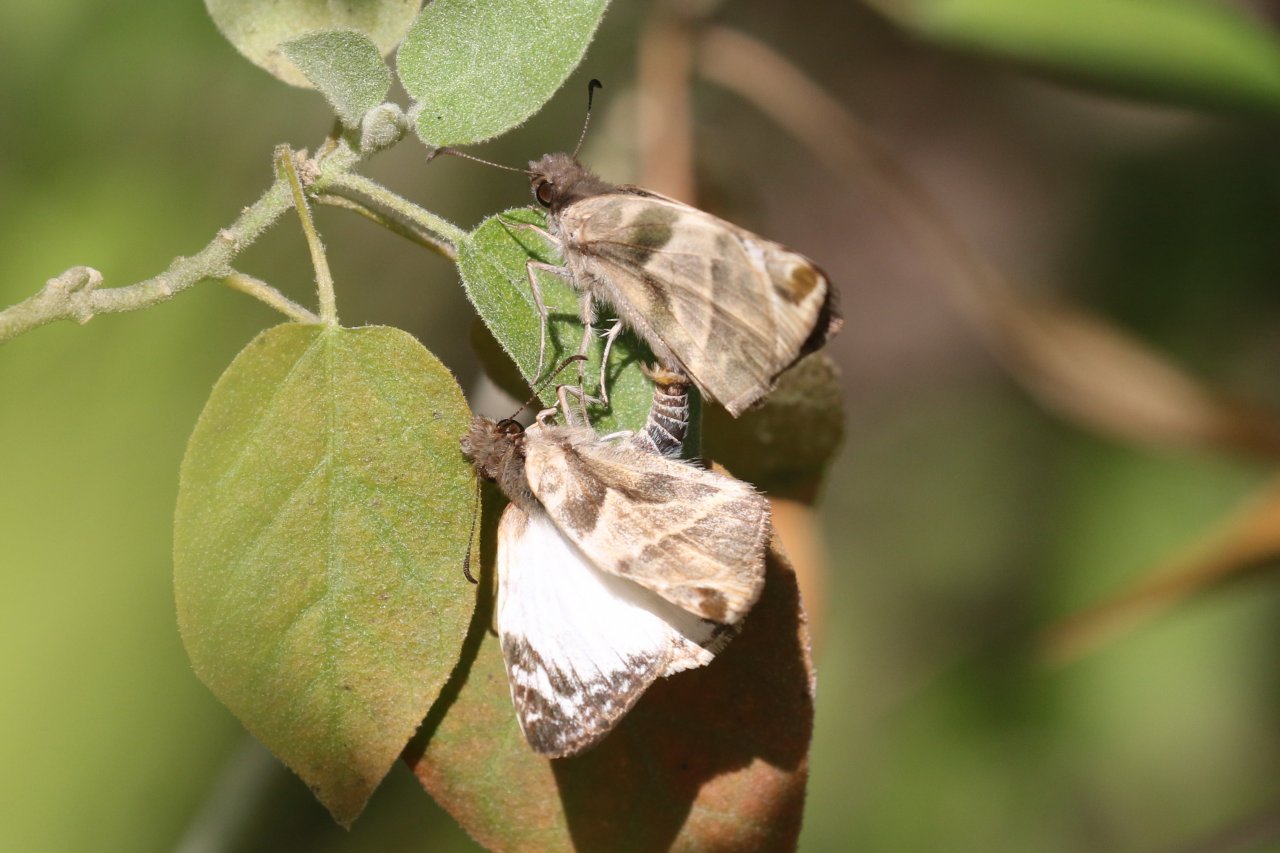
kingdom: Animalia
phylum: Arthropoda
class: Insecta
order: Lepidoptera
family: Hesperiidae
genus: Heliopetes
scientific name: Heliopetes laviana
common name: Laviana White-Skipper
